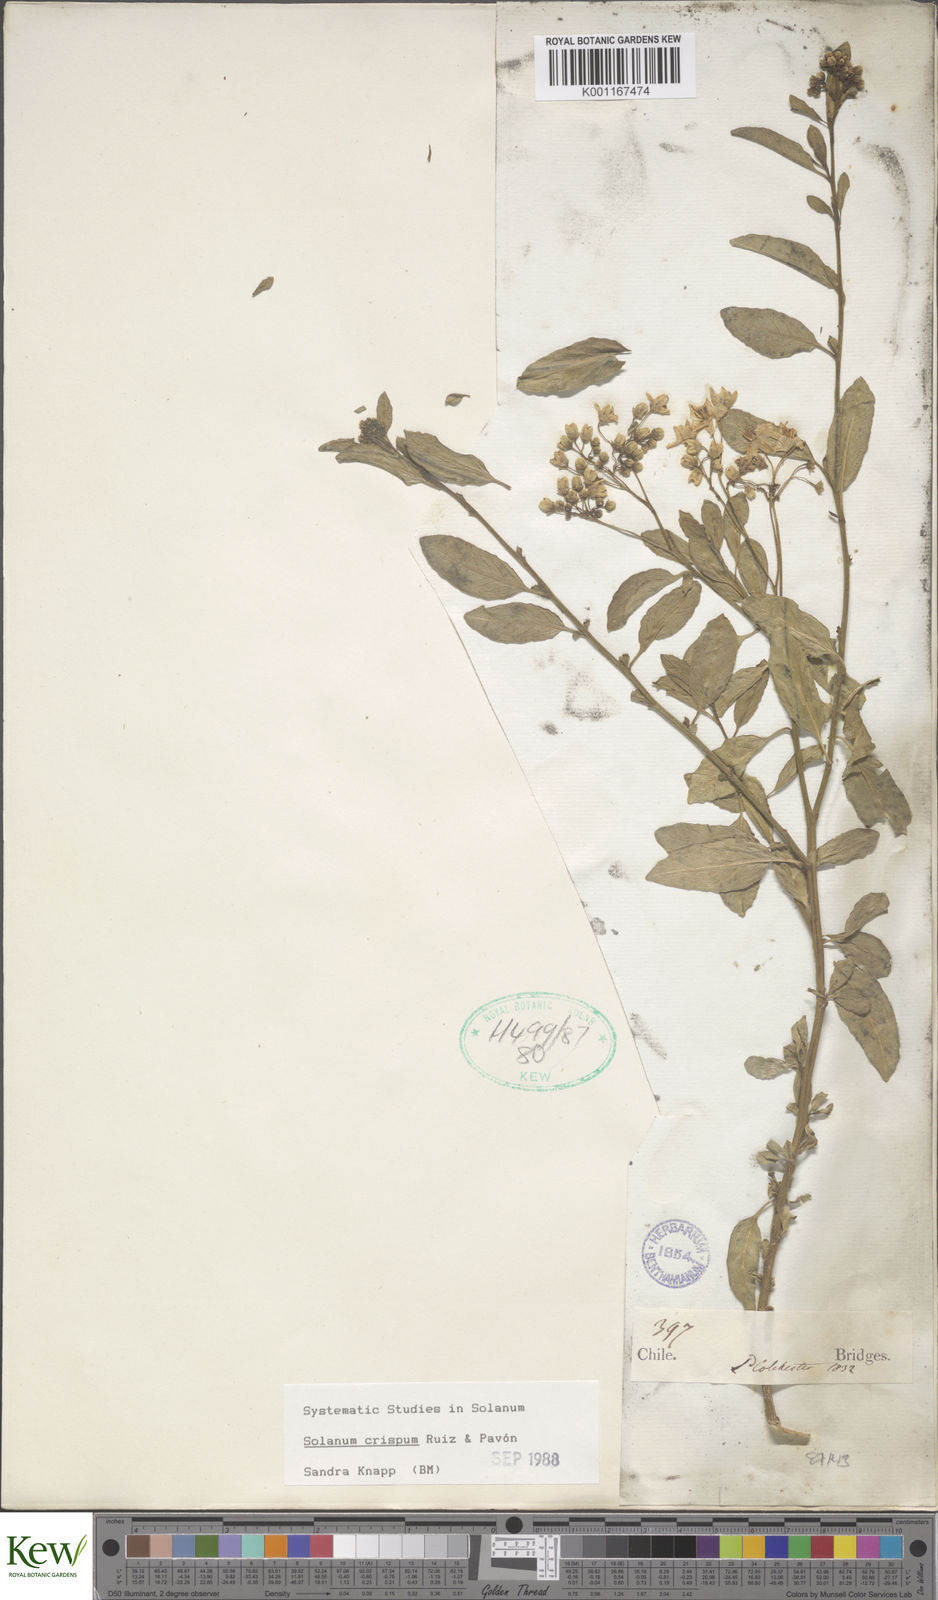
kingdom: Plantae
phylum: Tracheophyta
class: Magnoliopsida
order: Solanales
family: Solanaceae
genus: Solanum
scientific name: Solanum crispum
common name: Chilean nightshade
